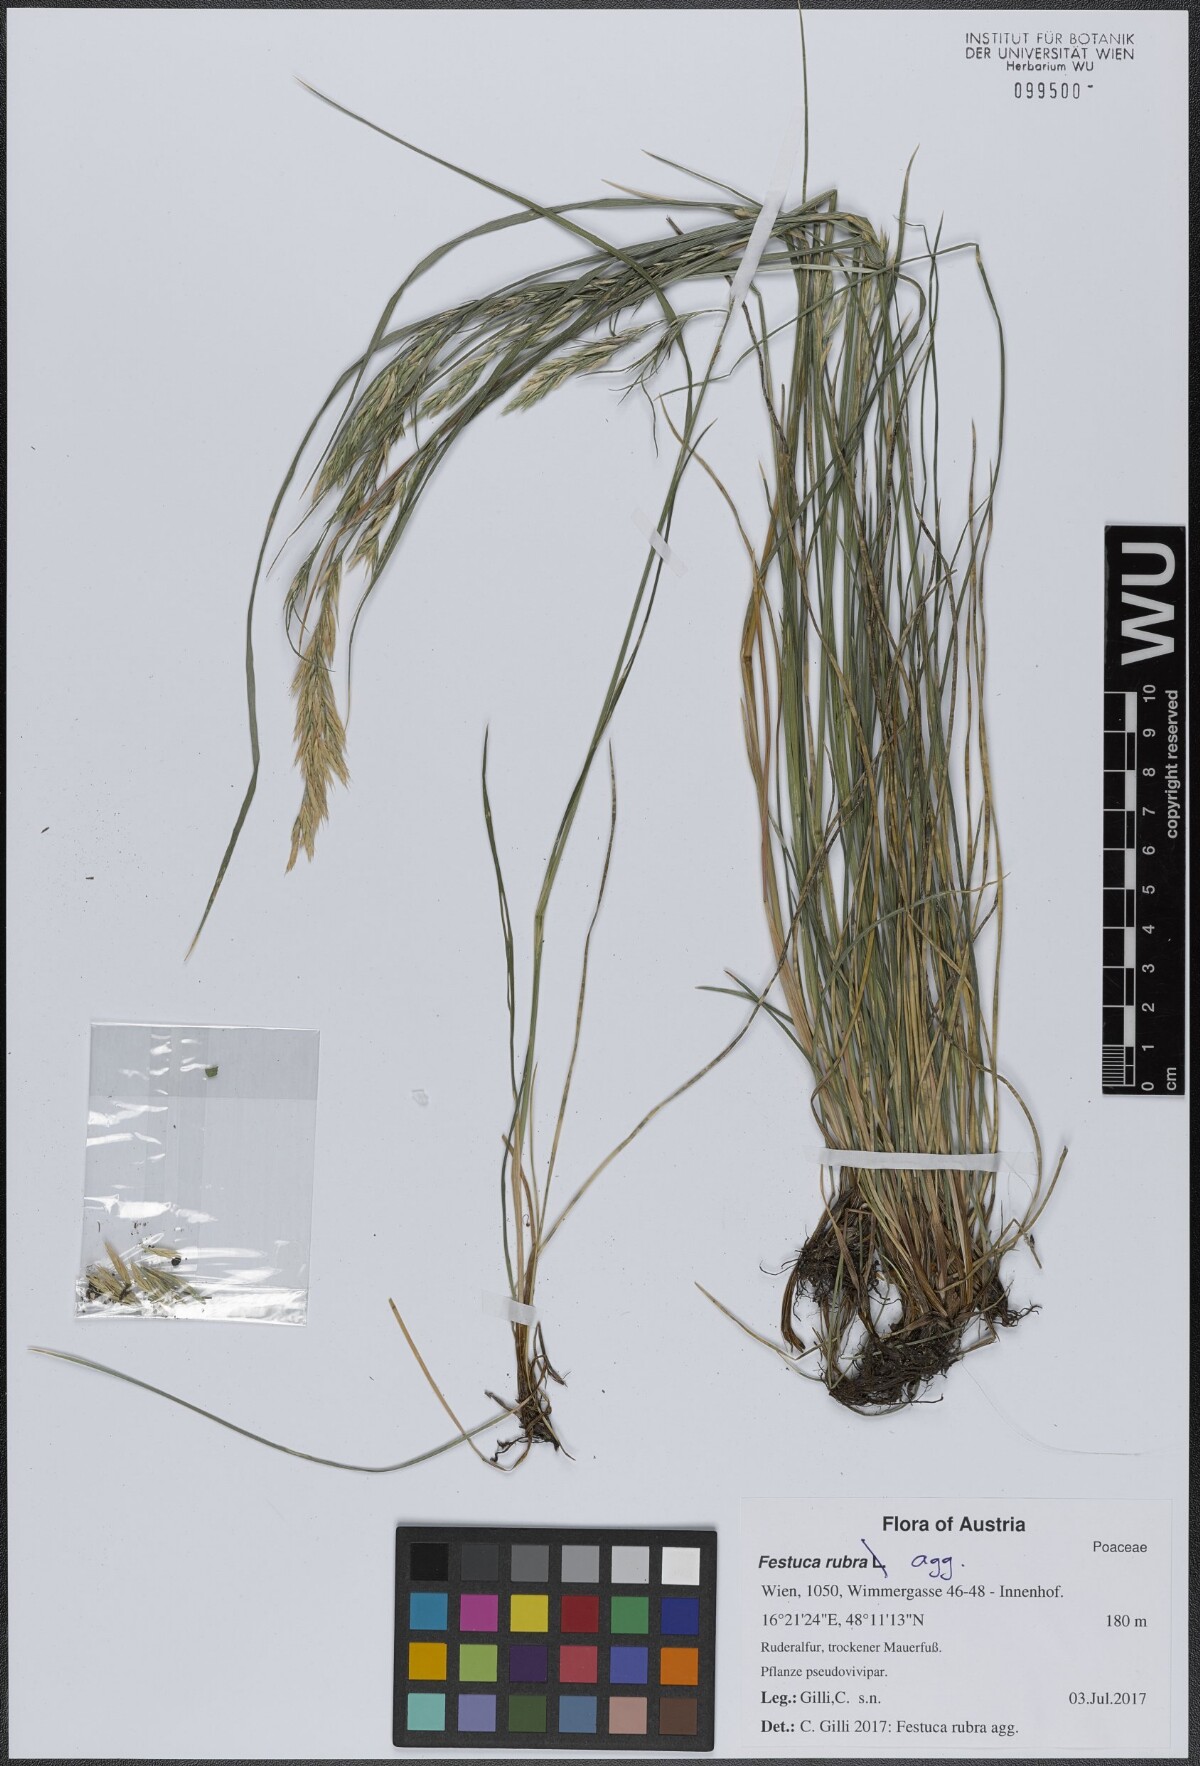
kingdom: Plantae
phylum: Tracheophyta
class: Liliopsida
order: Poales
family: Poaceae
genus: Festuca
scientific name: Festuca rubra
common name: Red fescue
